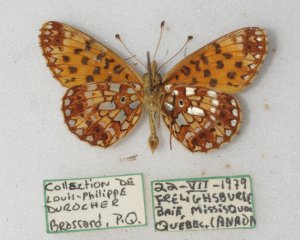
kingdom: Animalia
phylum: Arthropoda
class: Insecta
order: Lepidoptera
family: Nymphalidae
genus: Boloria
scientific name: Boloria selene
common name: Silver-bordered Fritillary
